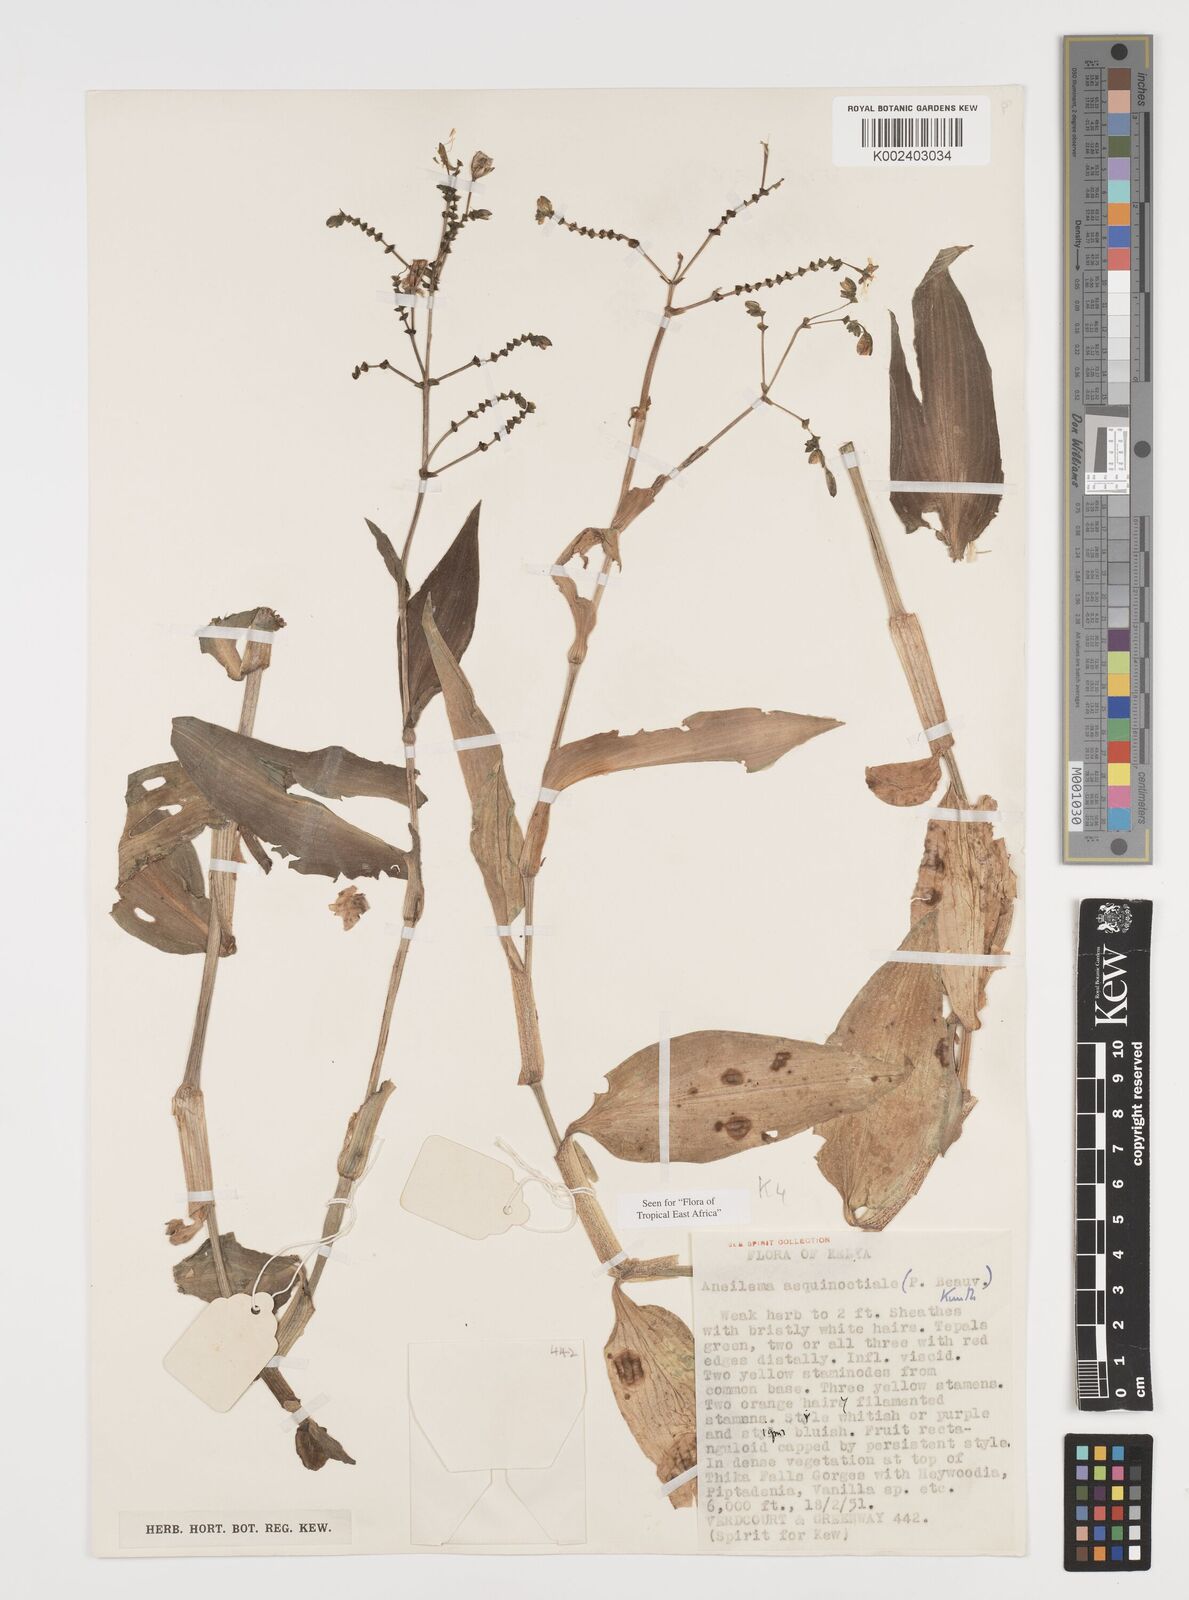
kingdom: Plantae
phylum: Tracheophyta
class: Liliopsida
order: Commelinales
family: Commelinaceae
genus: Aneilema
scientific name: Aneilema aequinoctiale
